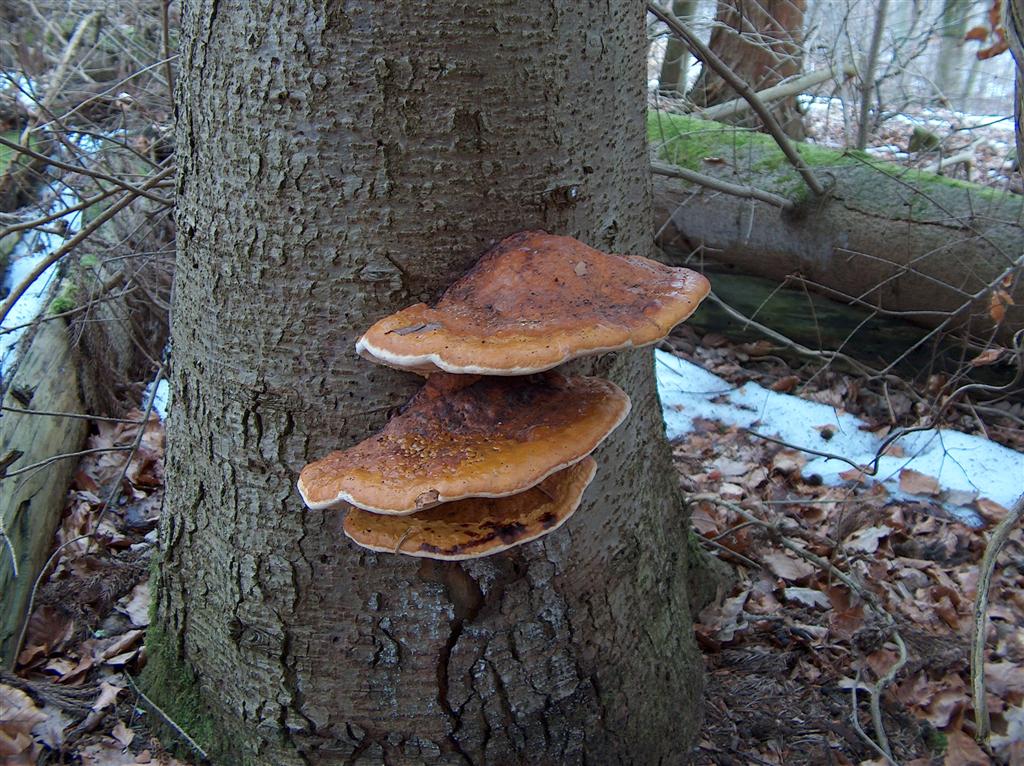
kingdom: Fungi
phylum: Basidiomycota
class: Agaricomycetes
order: Polyporales
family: Fomitopsidaceae
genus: Fomitopsis
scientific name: Fomitopsis pinicola
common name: randbæltet hovporesvamp
